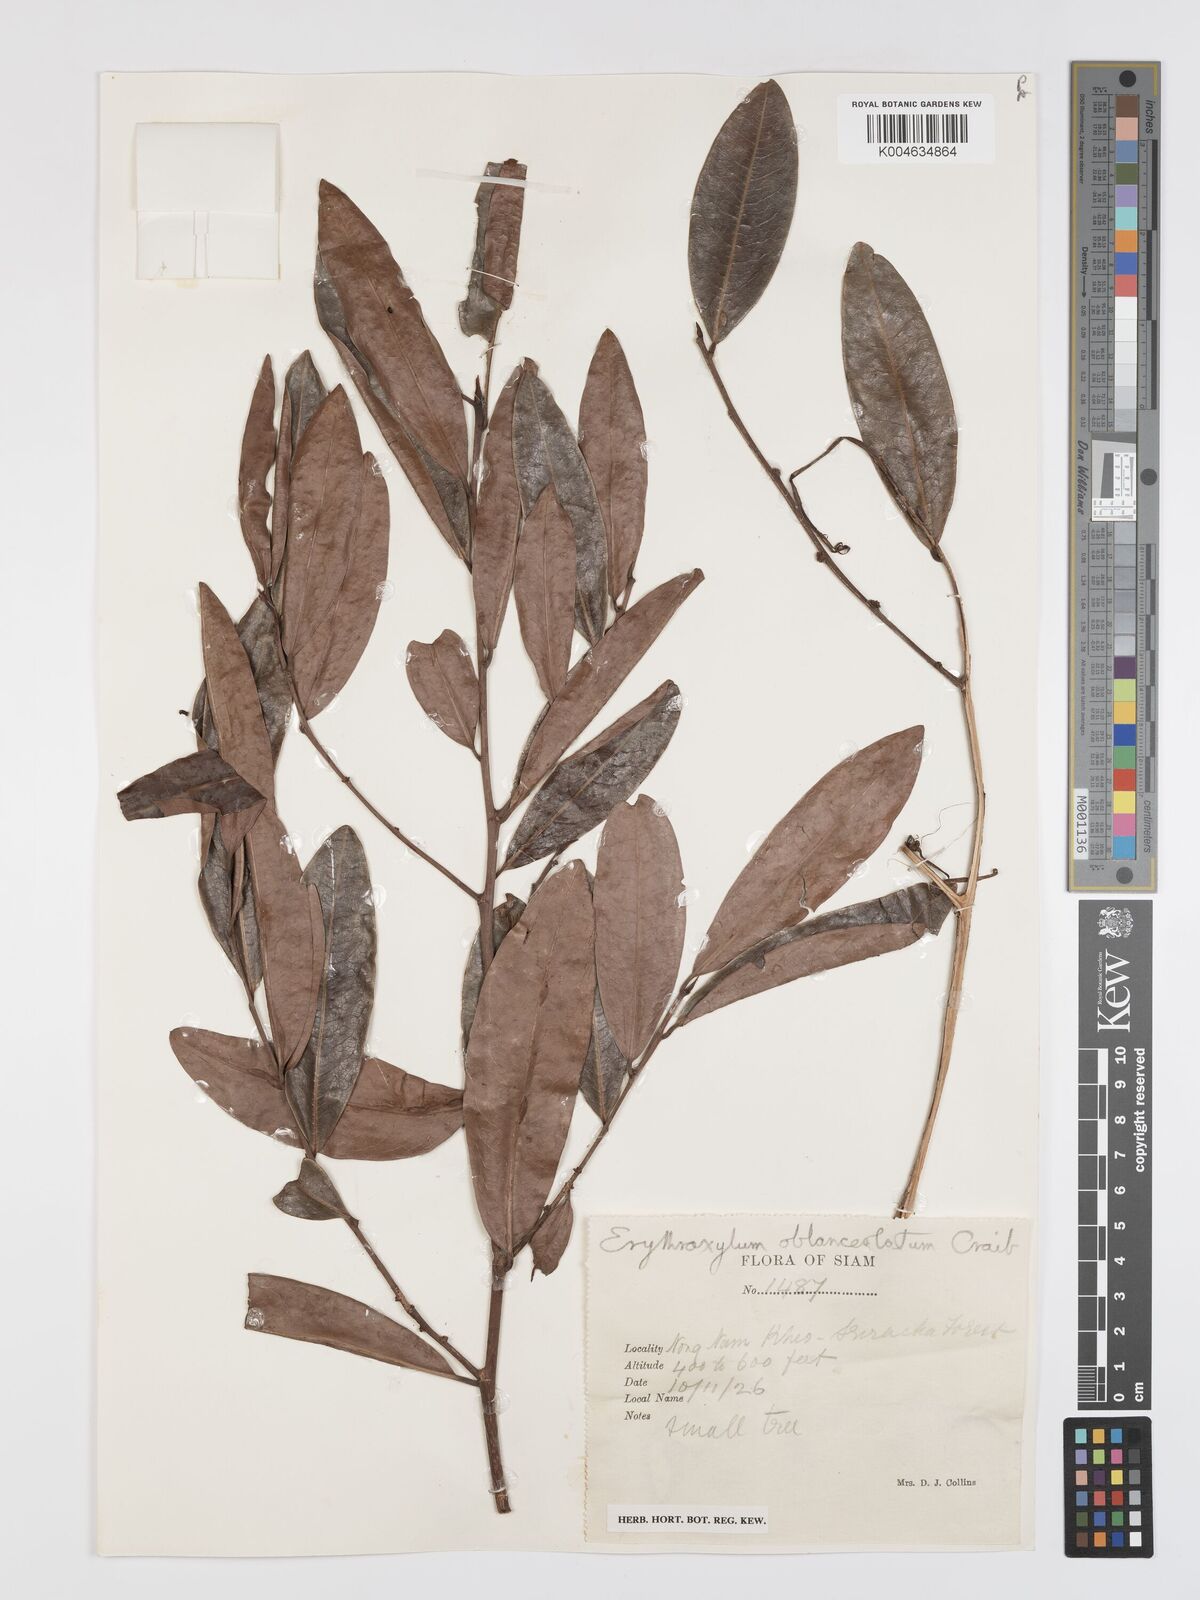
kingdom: Plantae
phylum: Tracheophyta
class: Magnoliopsida
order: Malpighiales
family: Erythroxylaceae
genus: Erythroxylum
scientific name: Erythroxylum cuneatum
